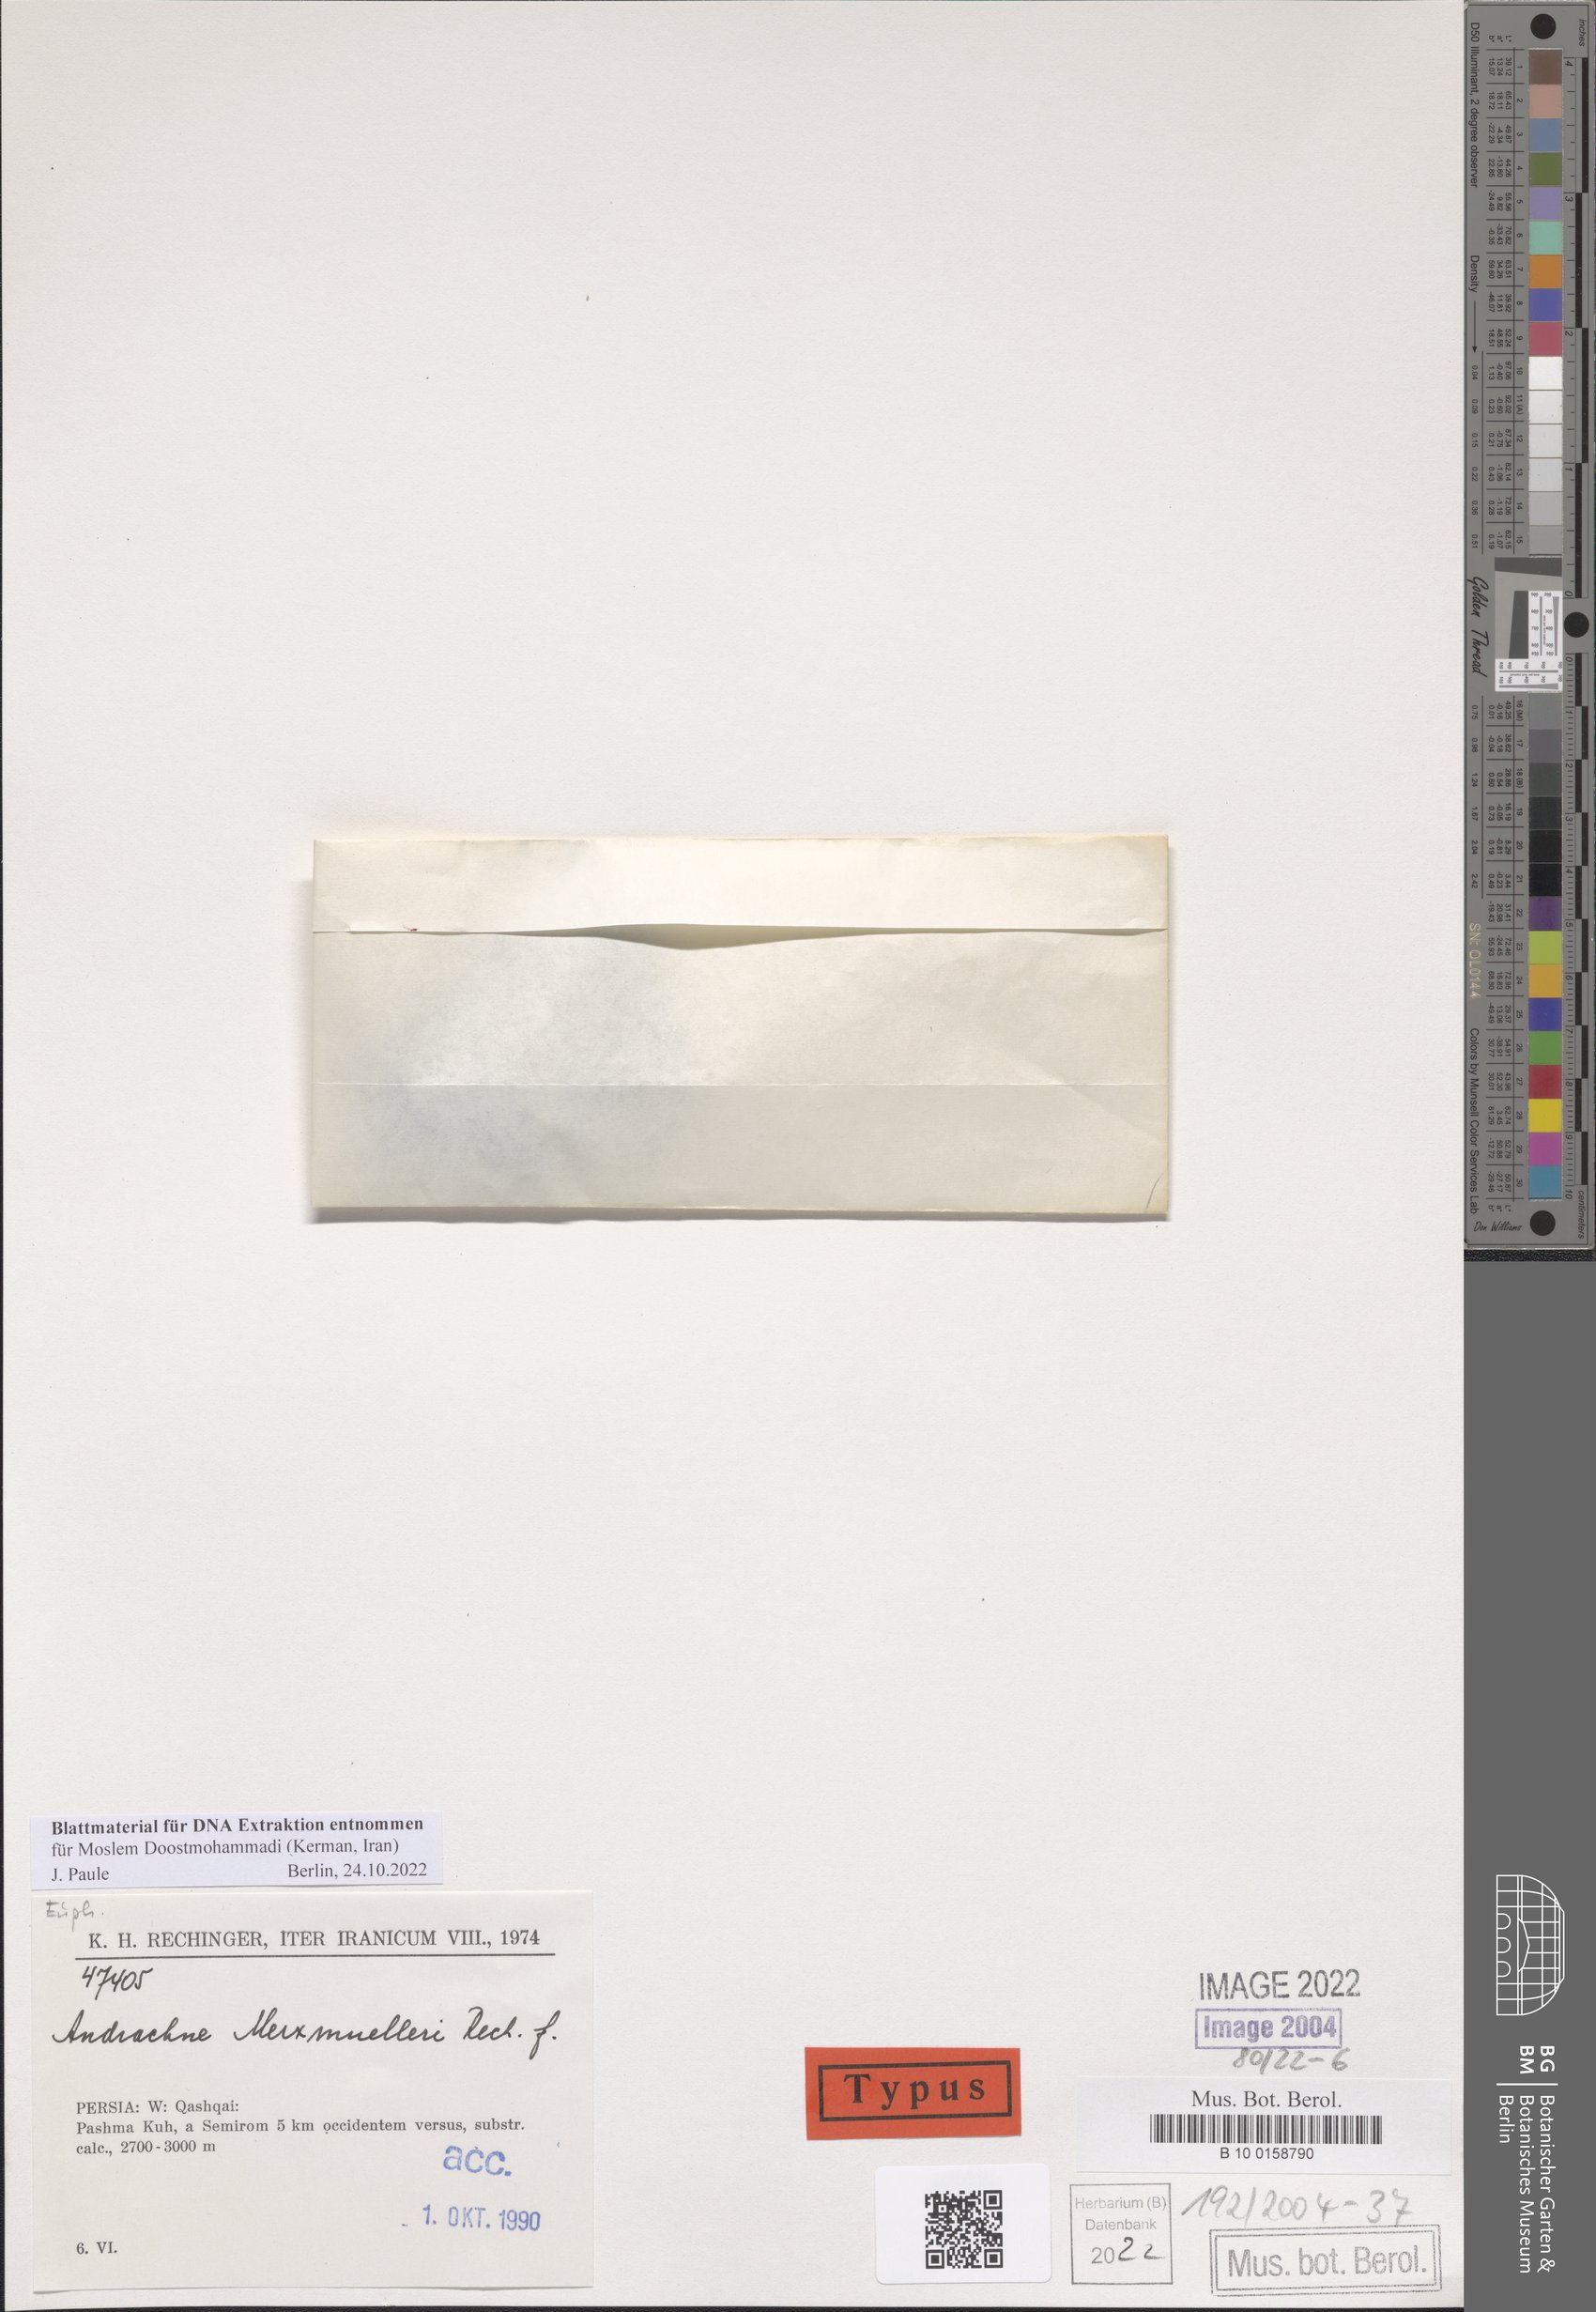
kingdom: Plantae
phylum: Tracheophyta
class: Magnoliopsida
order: Malpighiales
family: Phyllanthaceae
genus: Andrachne
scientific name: Andrachne merxmuelleri
